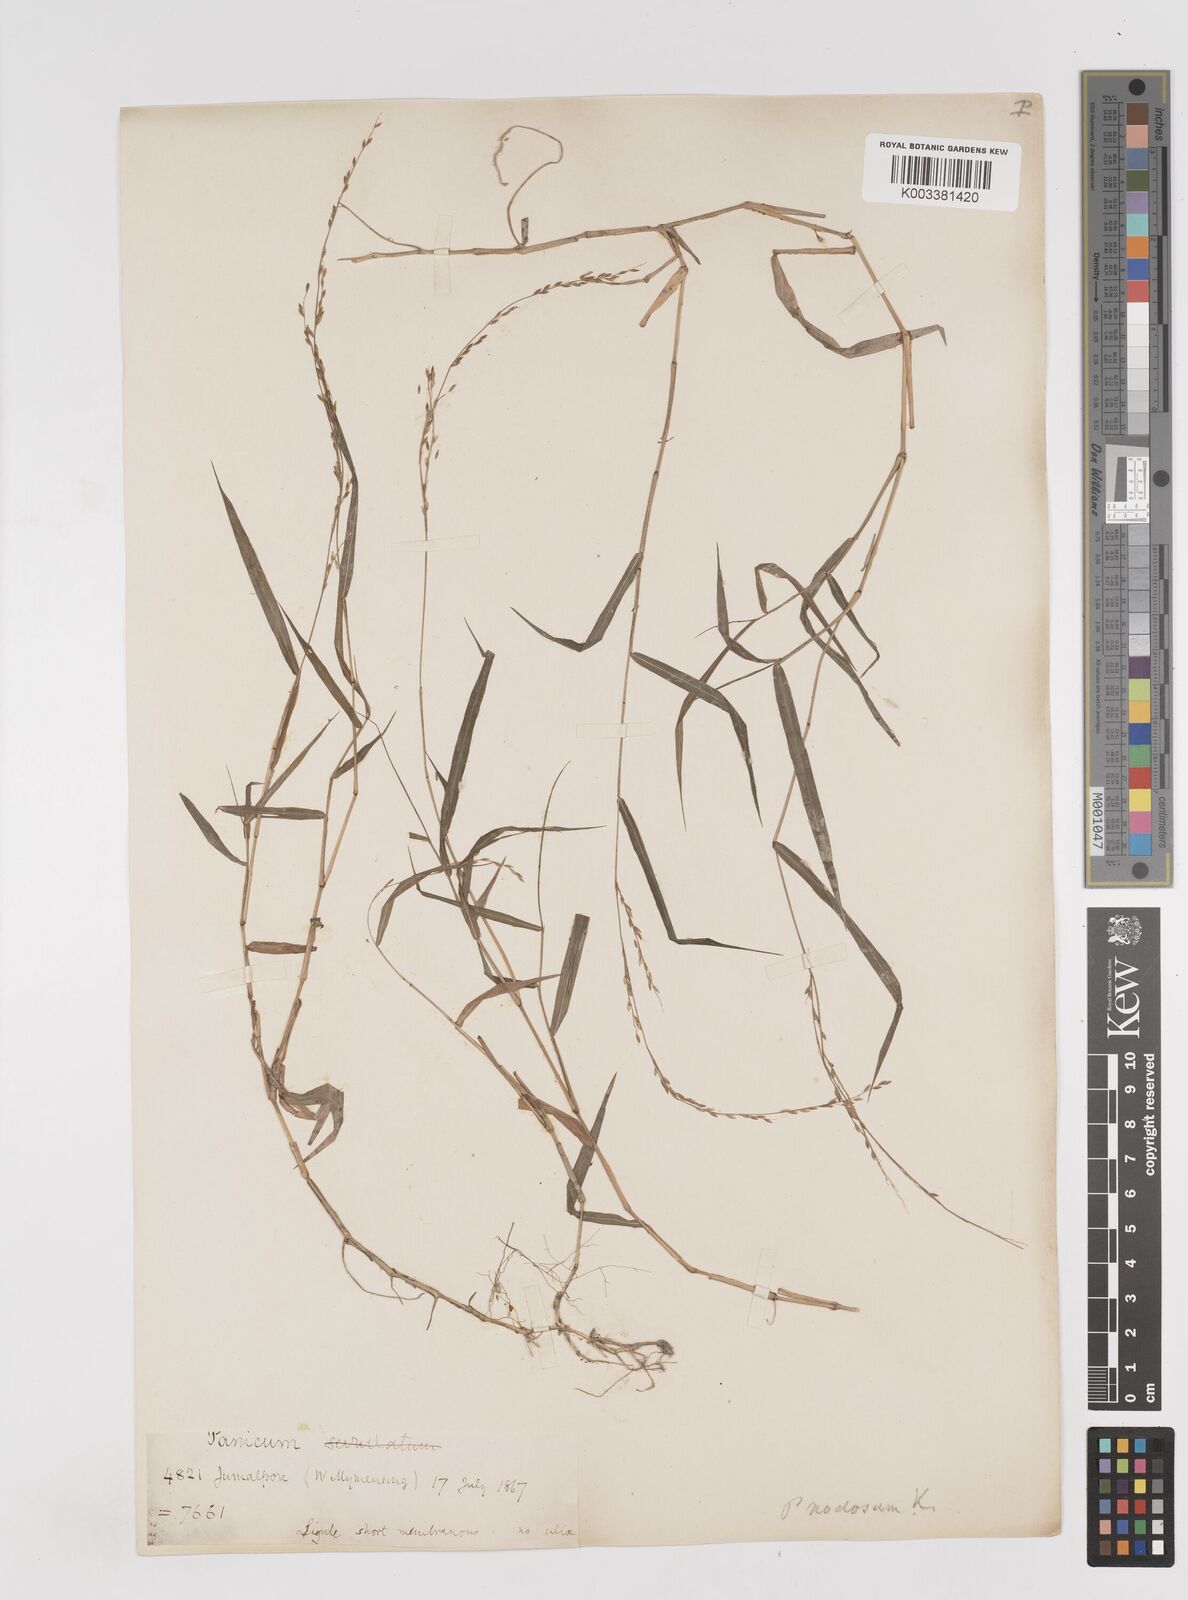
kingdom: Plantae
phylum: Tracheophyta
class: Liliopsida
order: Poales
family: Poaceae
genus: Ottochloa
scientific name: Ottochloa nodosa
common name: Slender-panic grass
